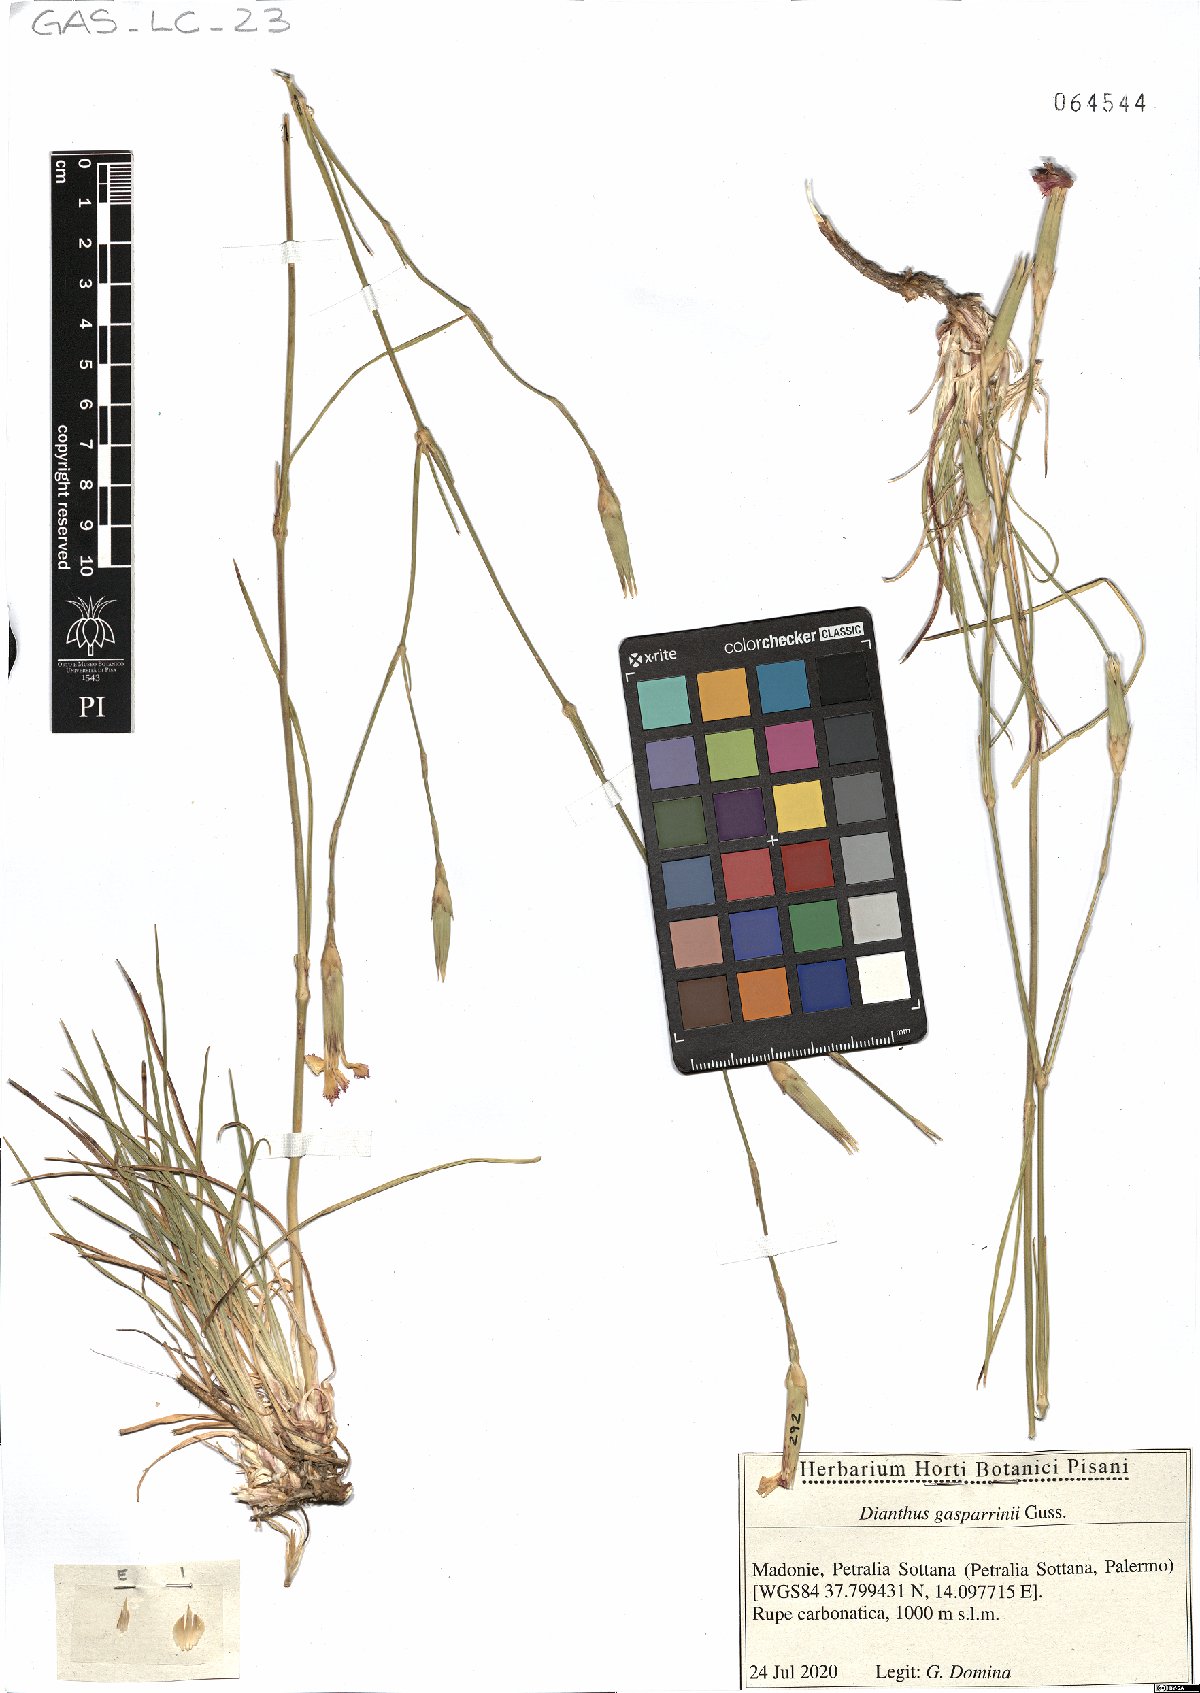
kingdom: Plantae
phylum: Tracheophyta
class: Magnoliopsida
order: Caryophyllales
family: Caryophyllaceae
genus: Dianthus
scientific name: Dianthus gasparrinii
